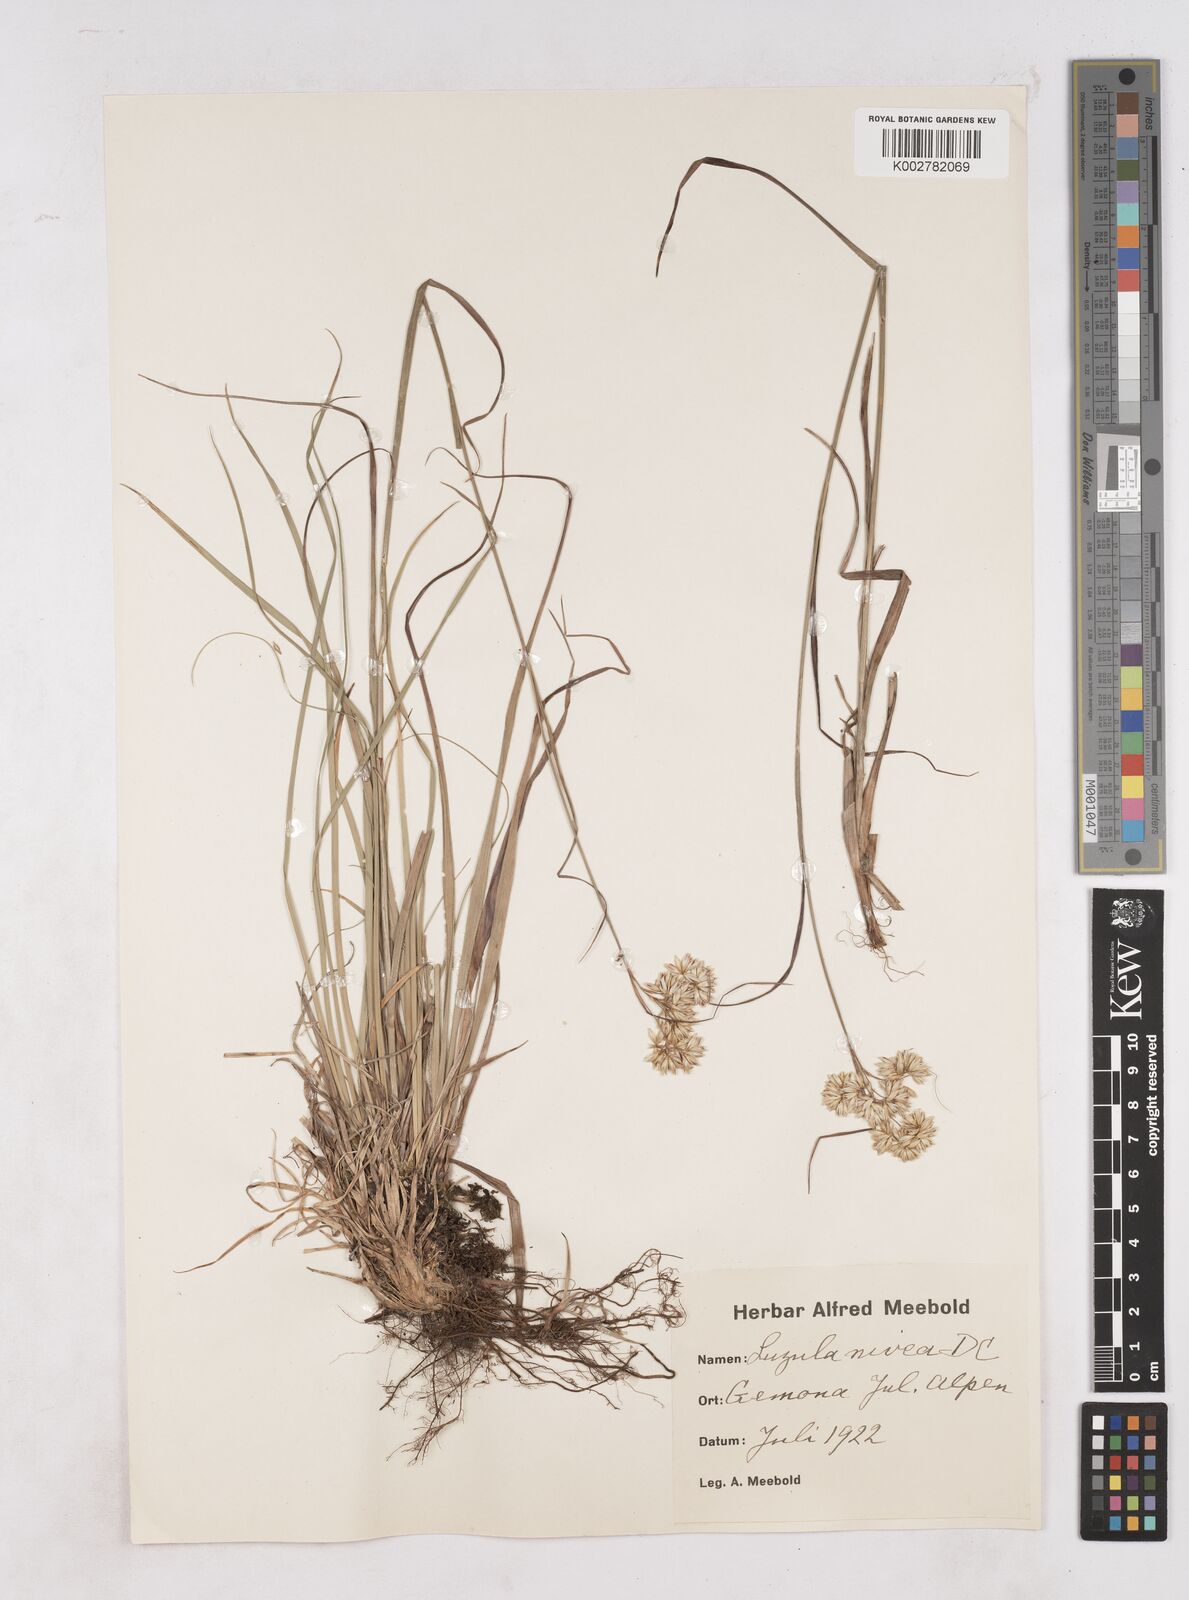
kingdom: Plantae
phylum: Tracheophyta
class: Liliopsida
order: Poales
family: Juncaceae
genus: Luzula
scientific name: Luzula nivea
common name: Snow-white wood-rush
